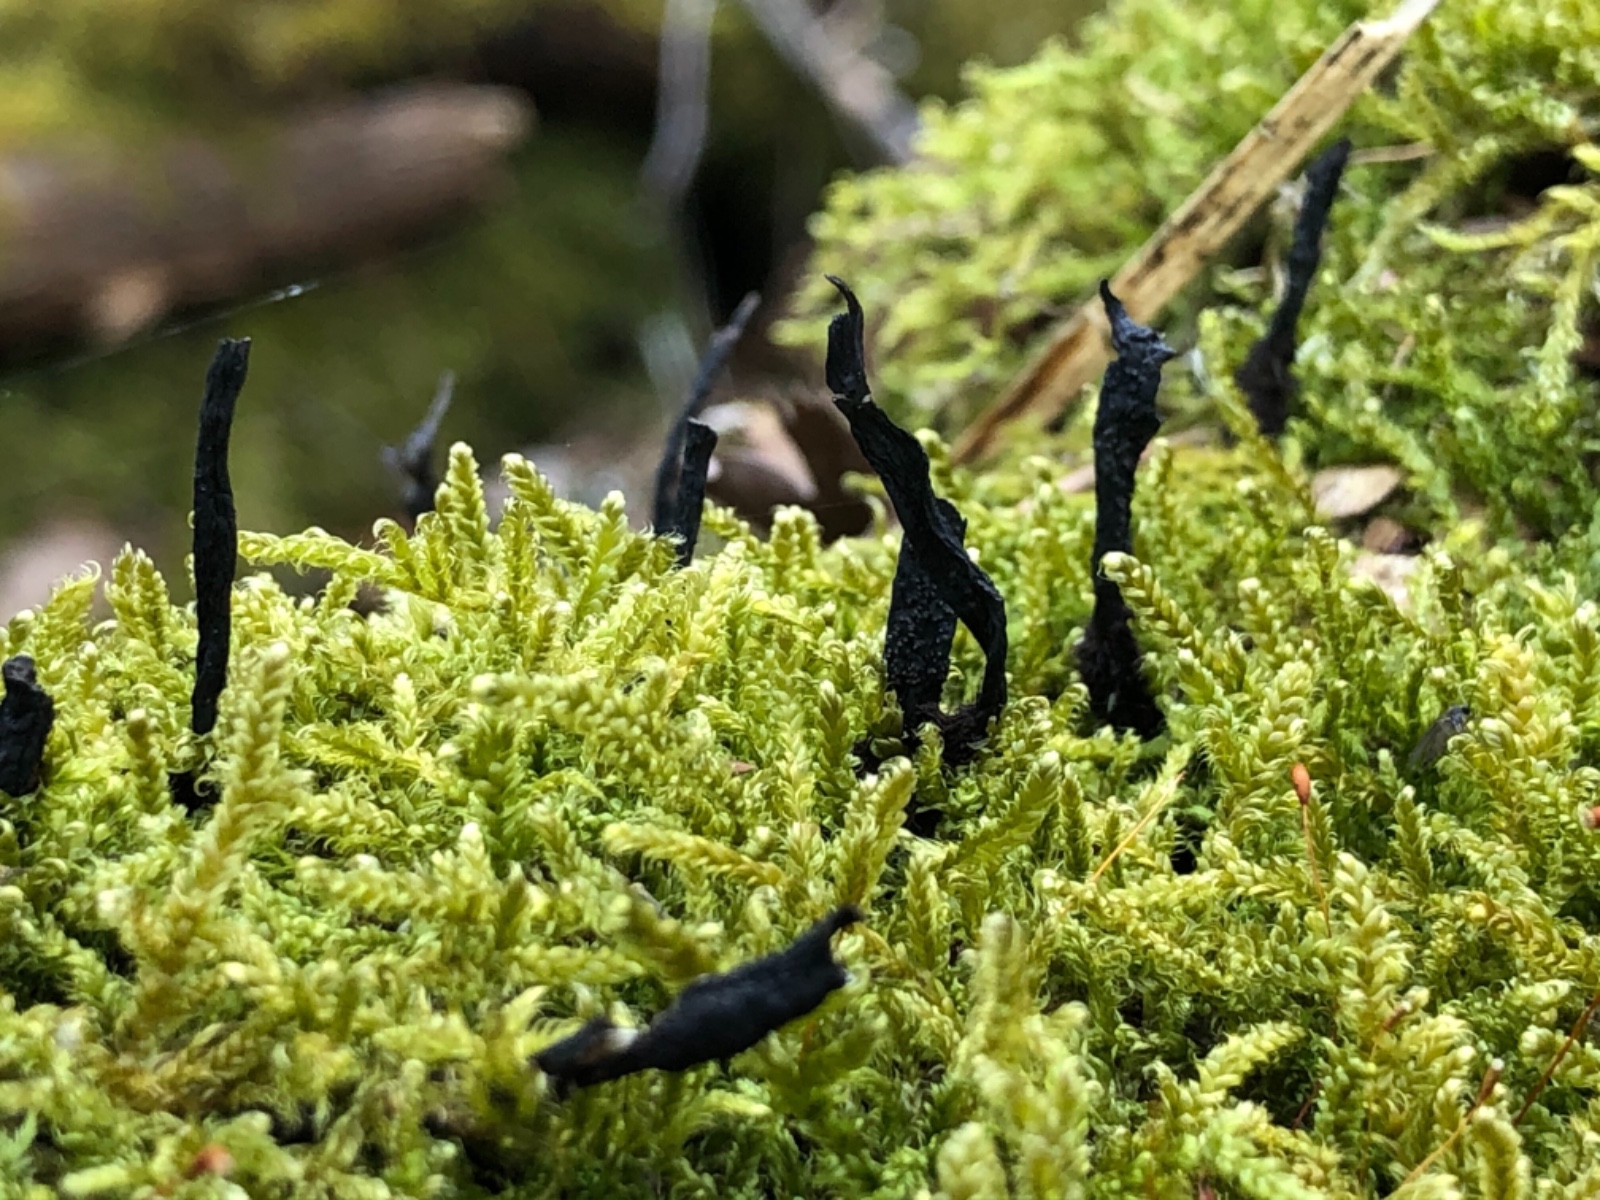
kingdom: Fungi
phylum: Ascomycota
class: Sordariomycetes
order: Xylariales
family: Xylariaceae
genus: Xylaria
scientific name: Xylaria hypoxylon
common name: grenet stødsvamp
